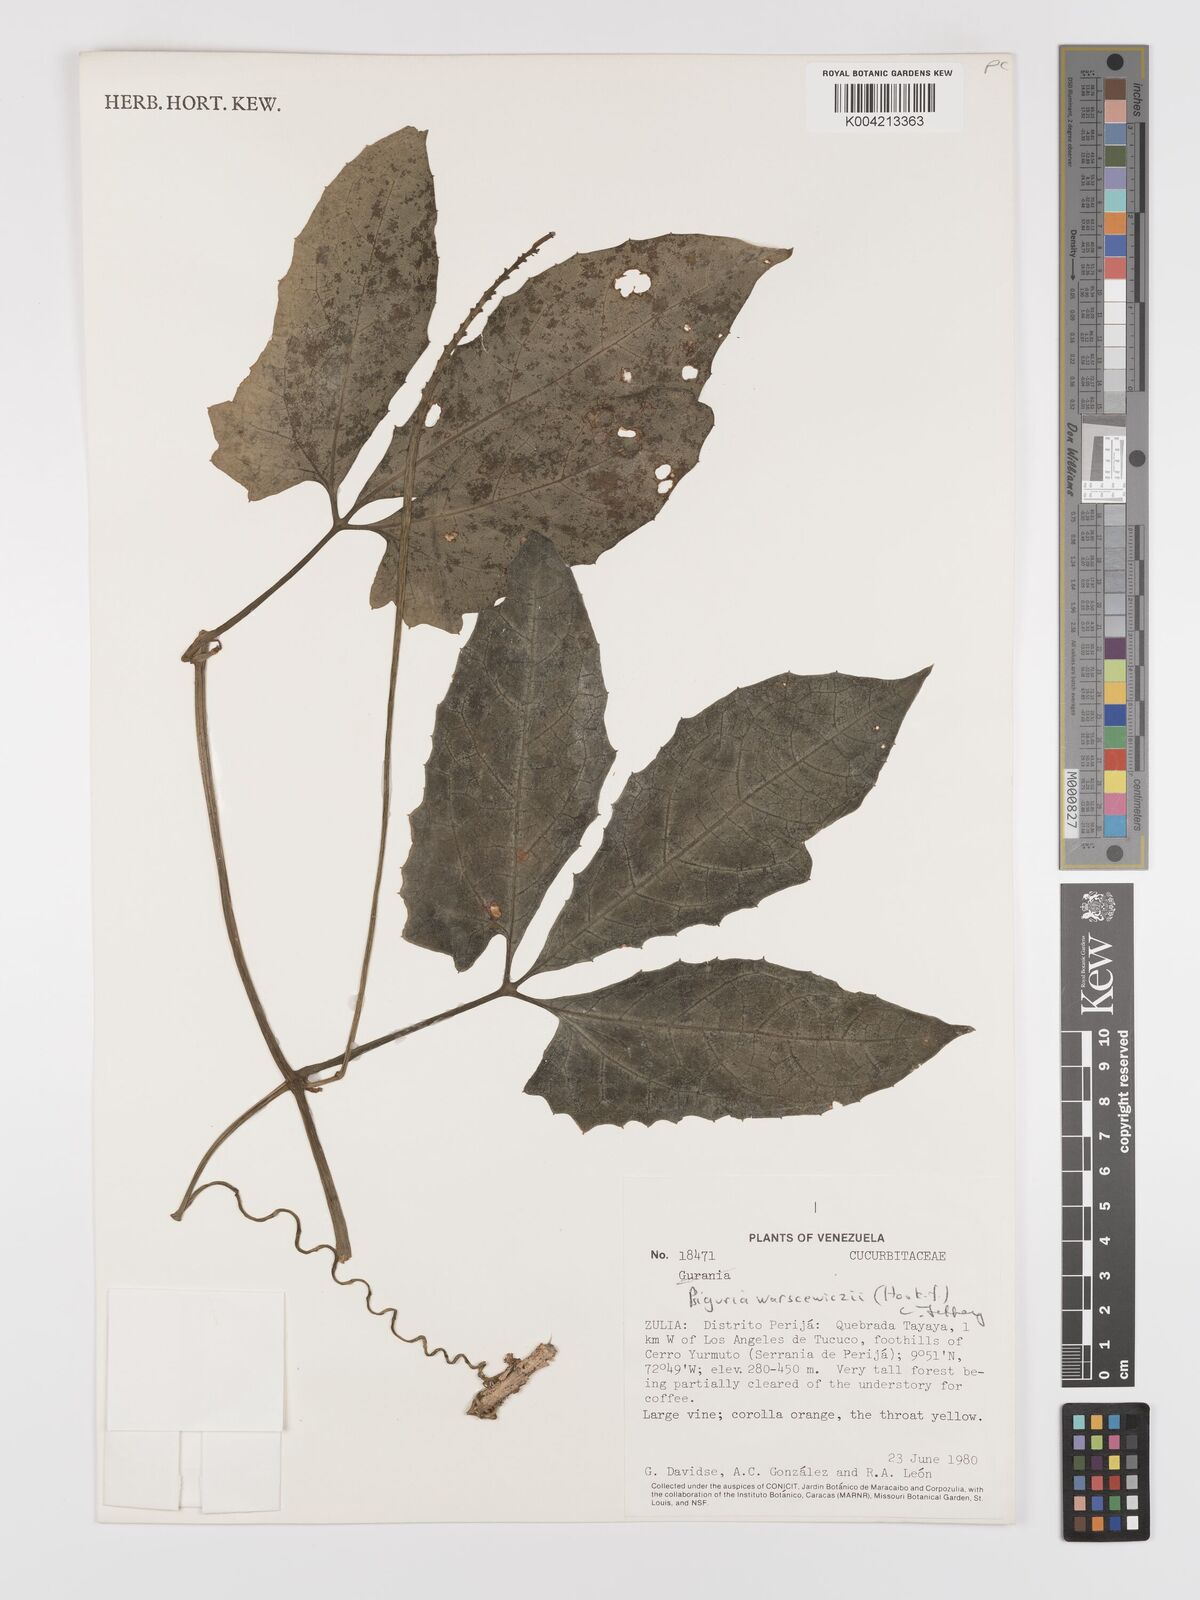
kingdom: Plantae
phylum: Tracheophyta
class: Magnoliopsida
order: Cucurbitales
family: Cucurbitaceae
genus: Psiguria
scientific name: Psiguria warscewiczii
